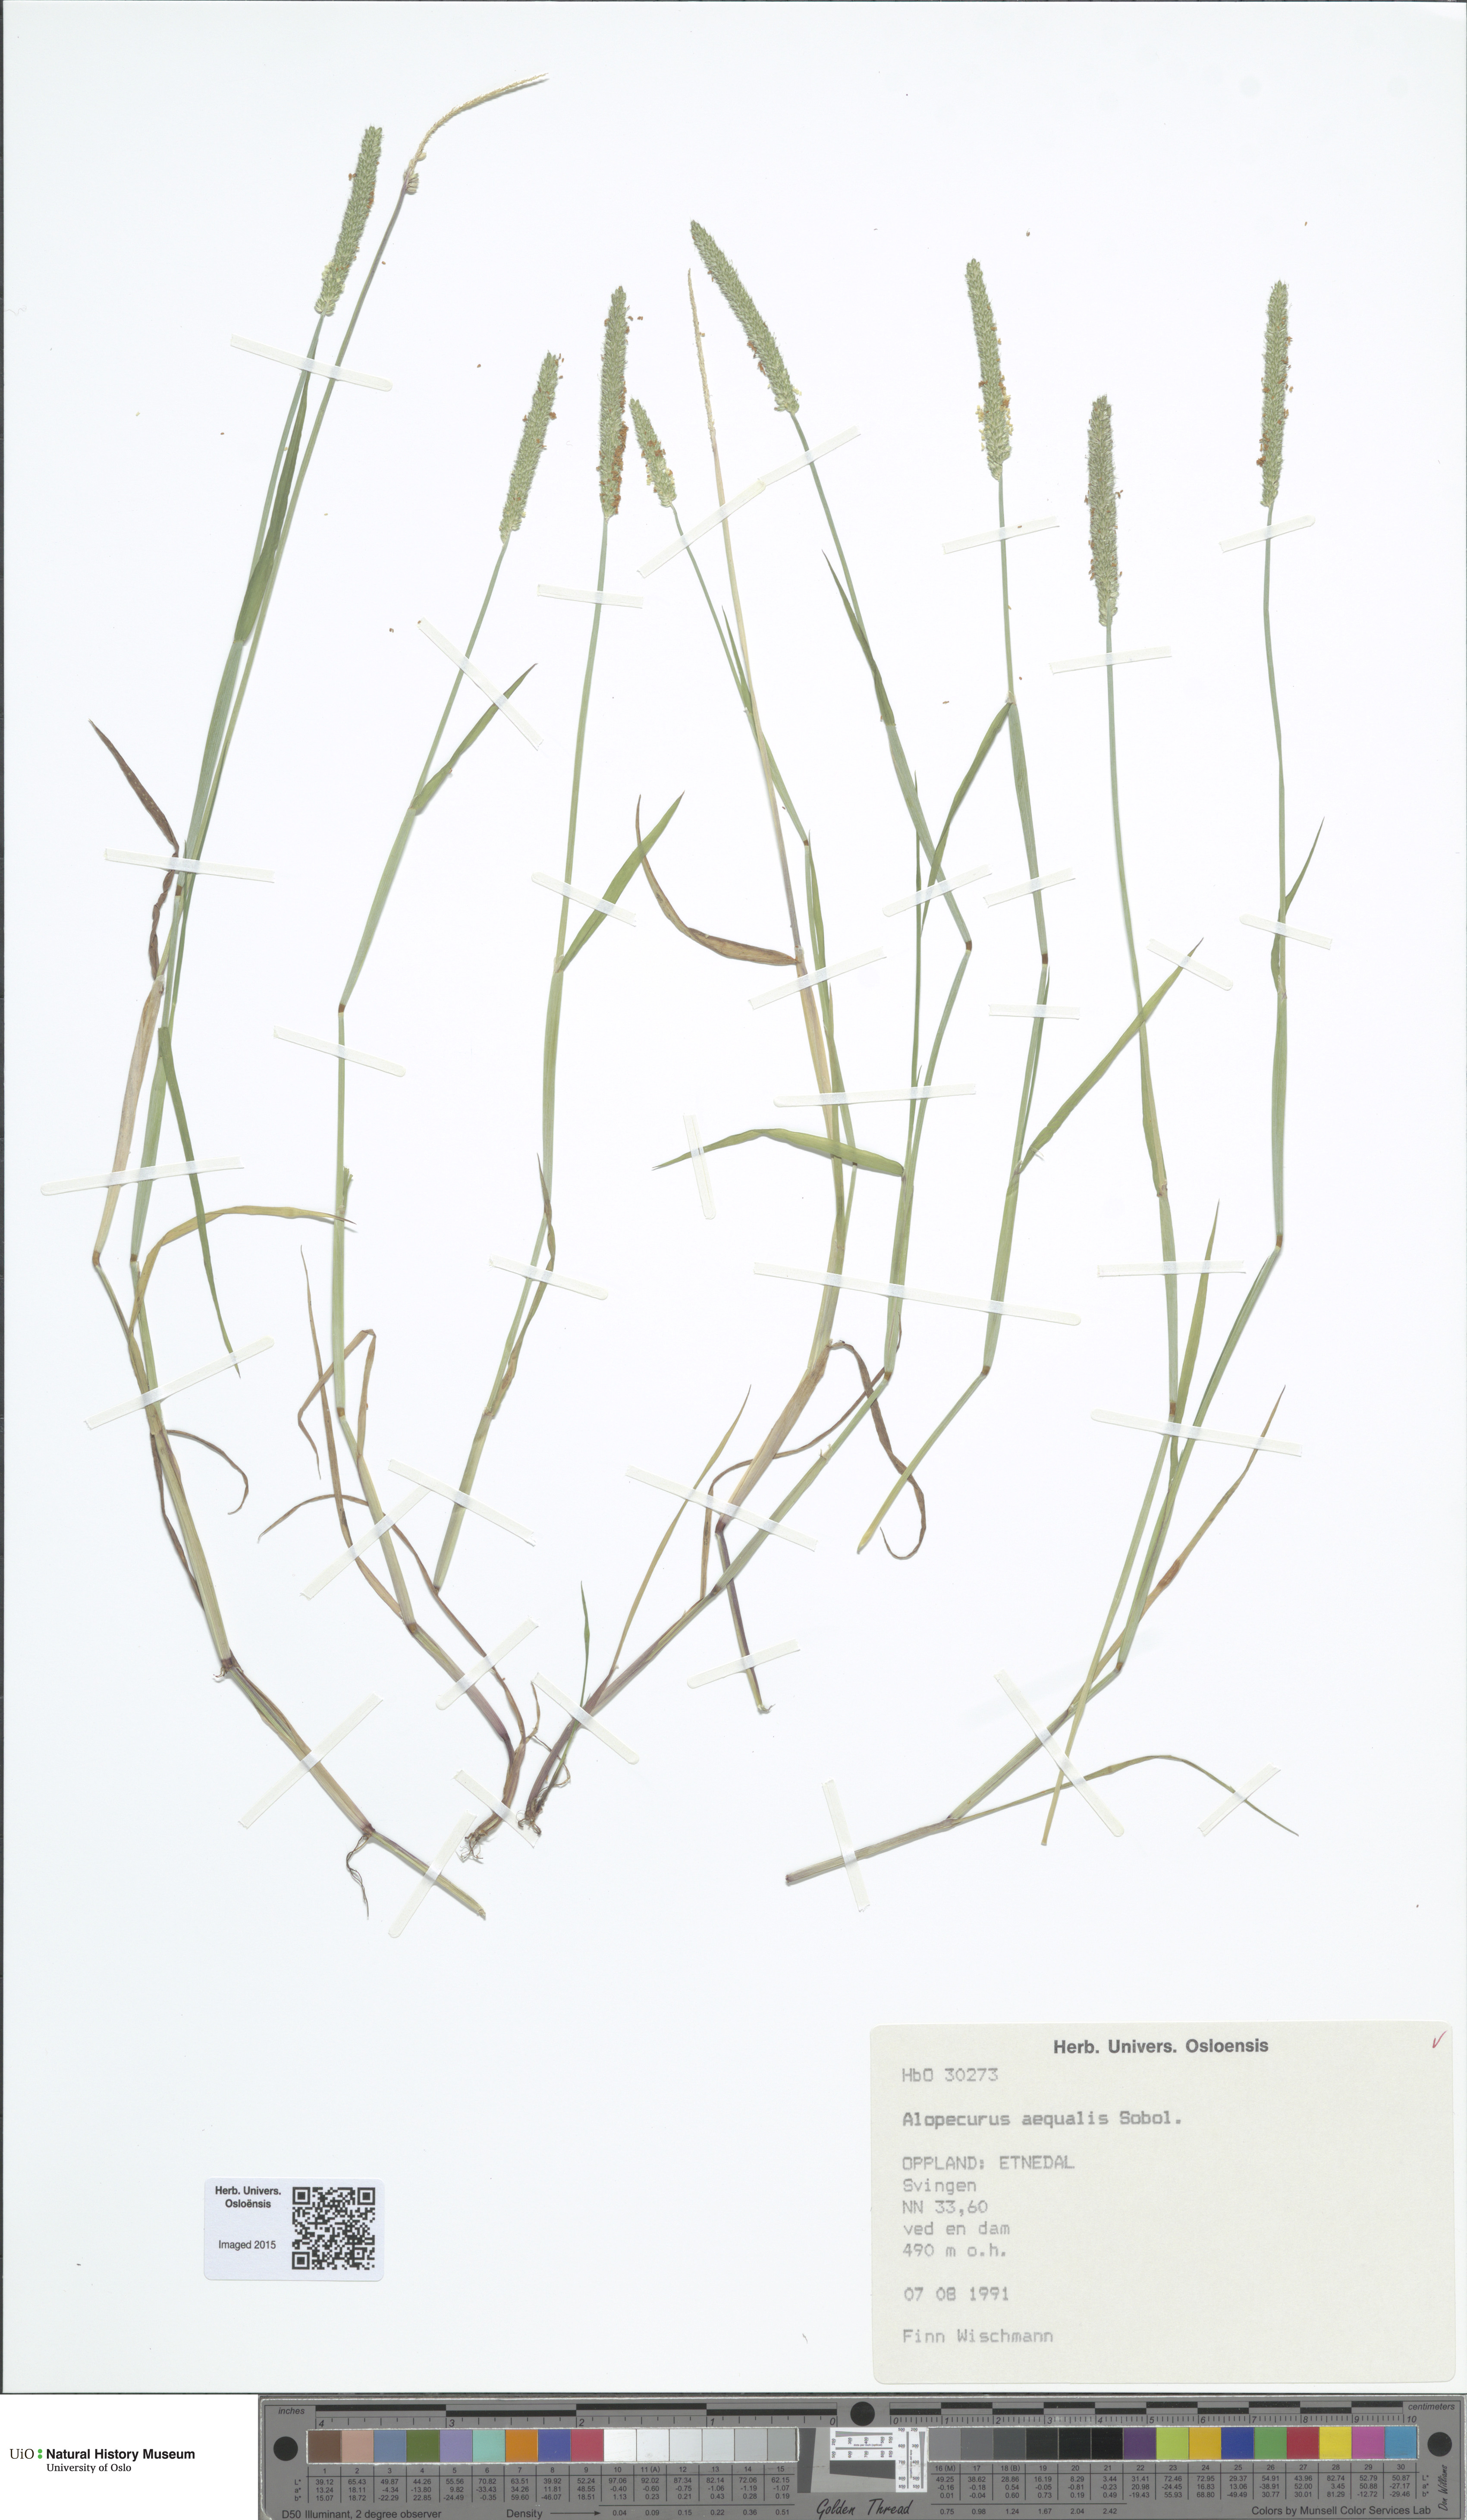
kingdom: Plantae
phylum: Tracheophyta
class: Liliopsida
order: Poales
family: Poaceae
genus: Alopecurus
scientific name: Alopecurus aequalis
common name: Orange foxtail
